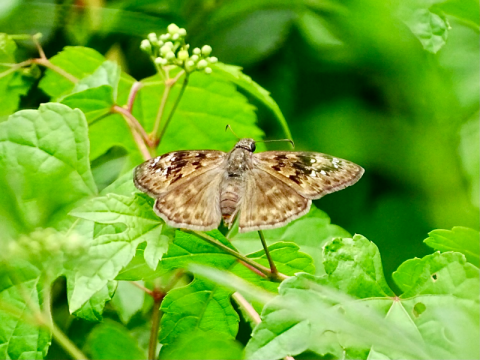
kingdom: Animalia
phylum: Arthropoda
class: Insecta
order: Lepidoptera
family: Hesperiidae
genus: Gesta
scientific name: Gesta
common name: Horace's Duskywing
